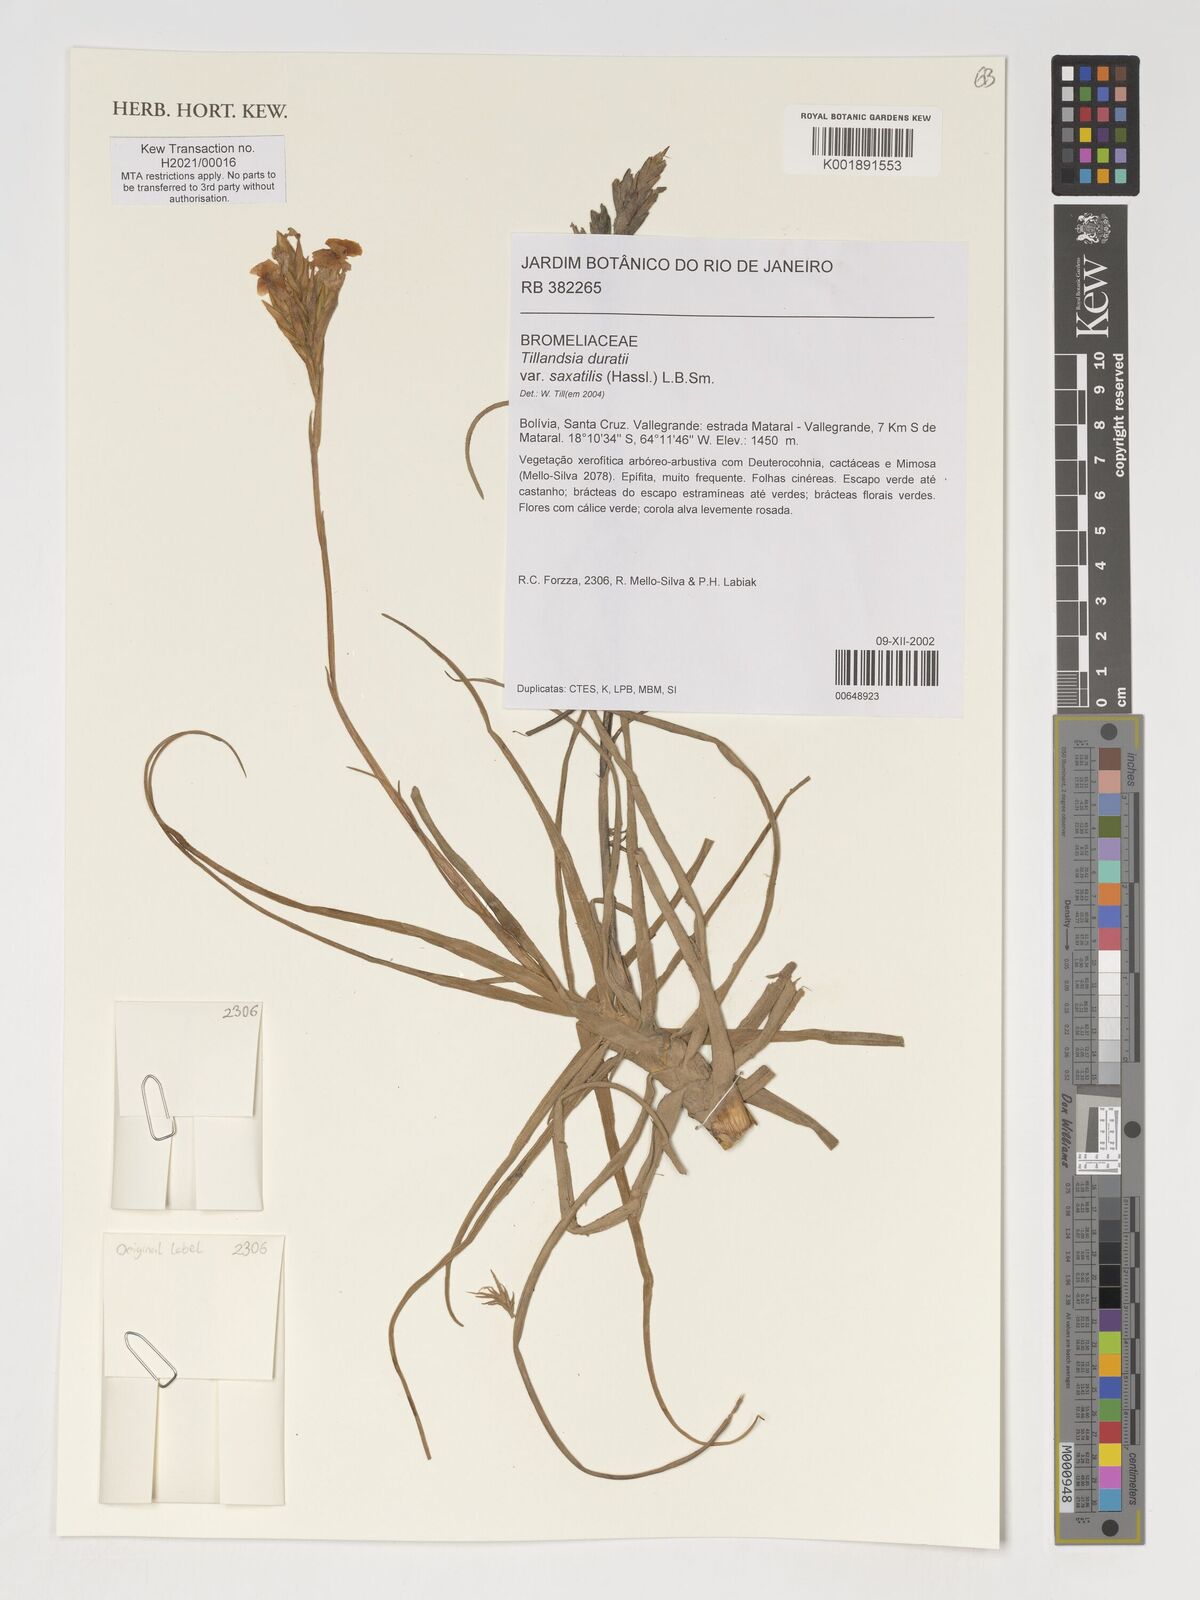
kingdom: Plantae
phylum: Tracheophyta
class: Liliopsida
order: Poales
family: Bromeliaceae
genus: Tillandsia
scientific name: Tillandsia duratii
